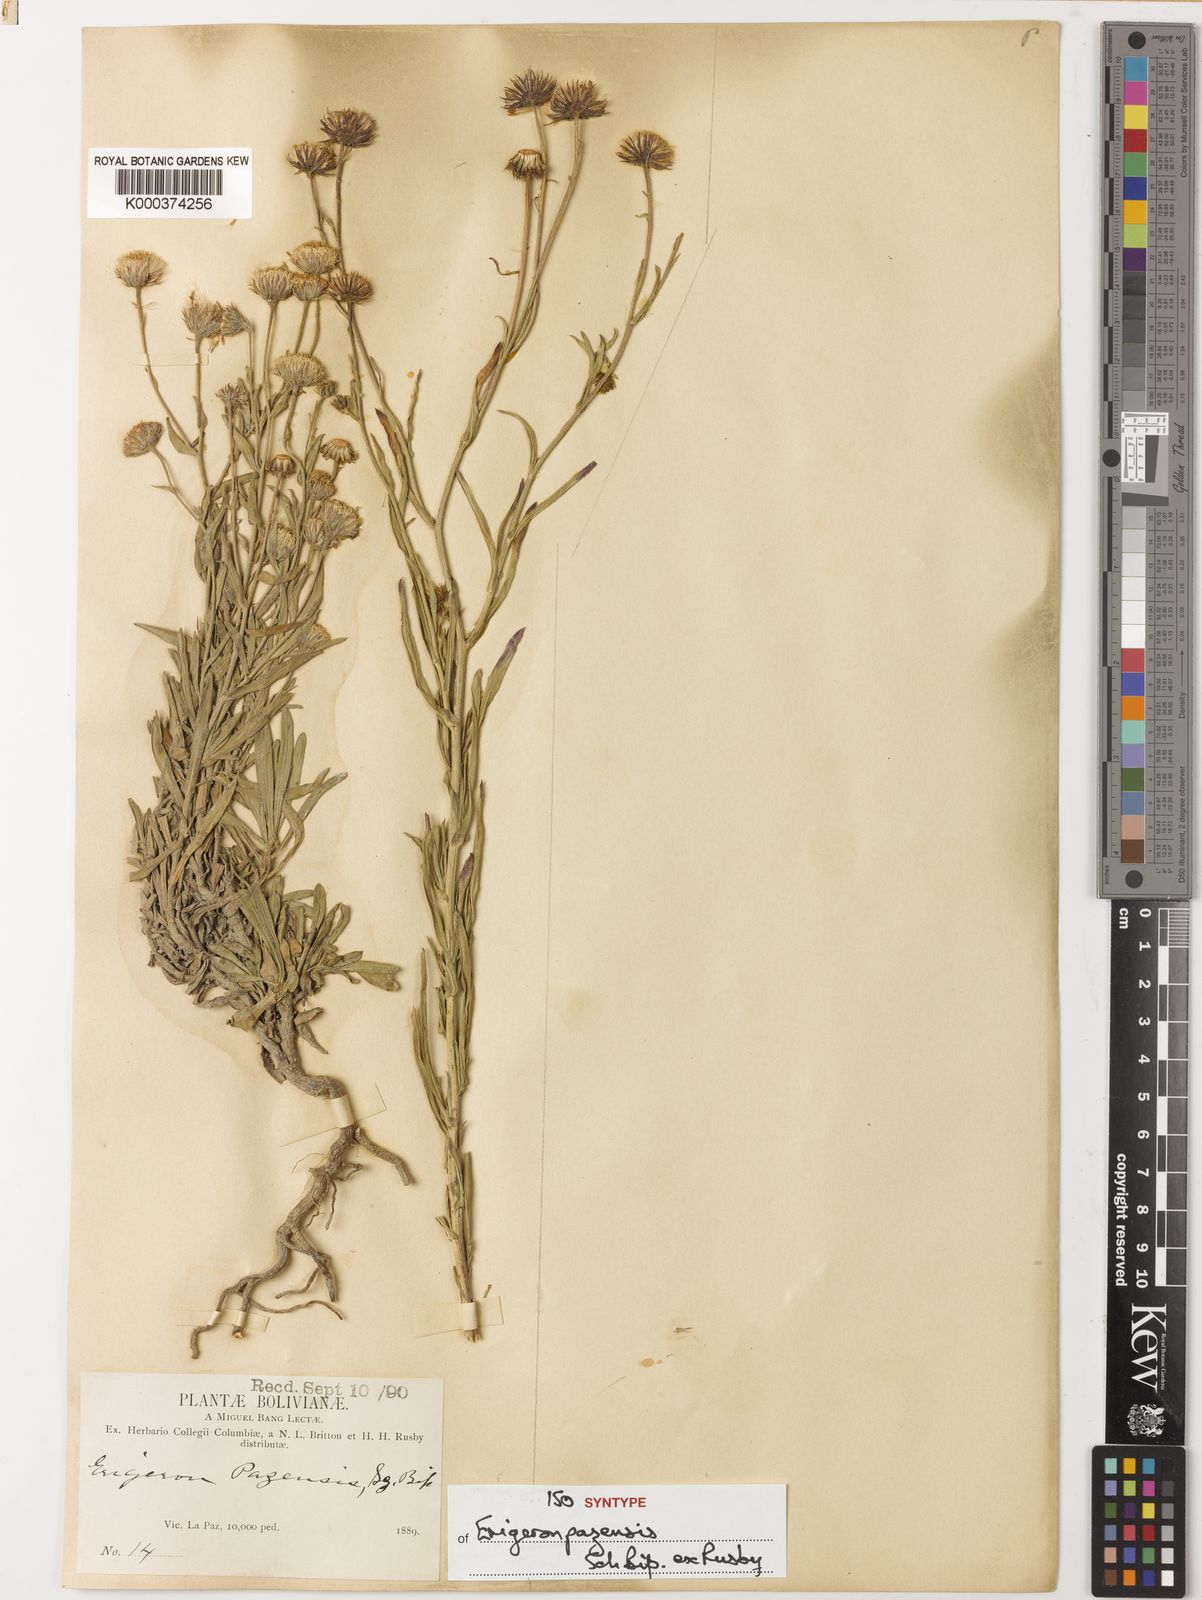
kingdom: Plantae
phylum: Tracheophyta
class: Magnoliopsida
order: Asterales
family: Asteraceae
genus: Erigeron
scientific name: Erigeron
